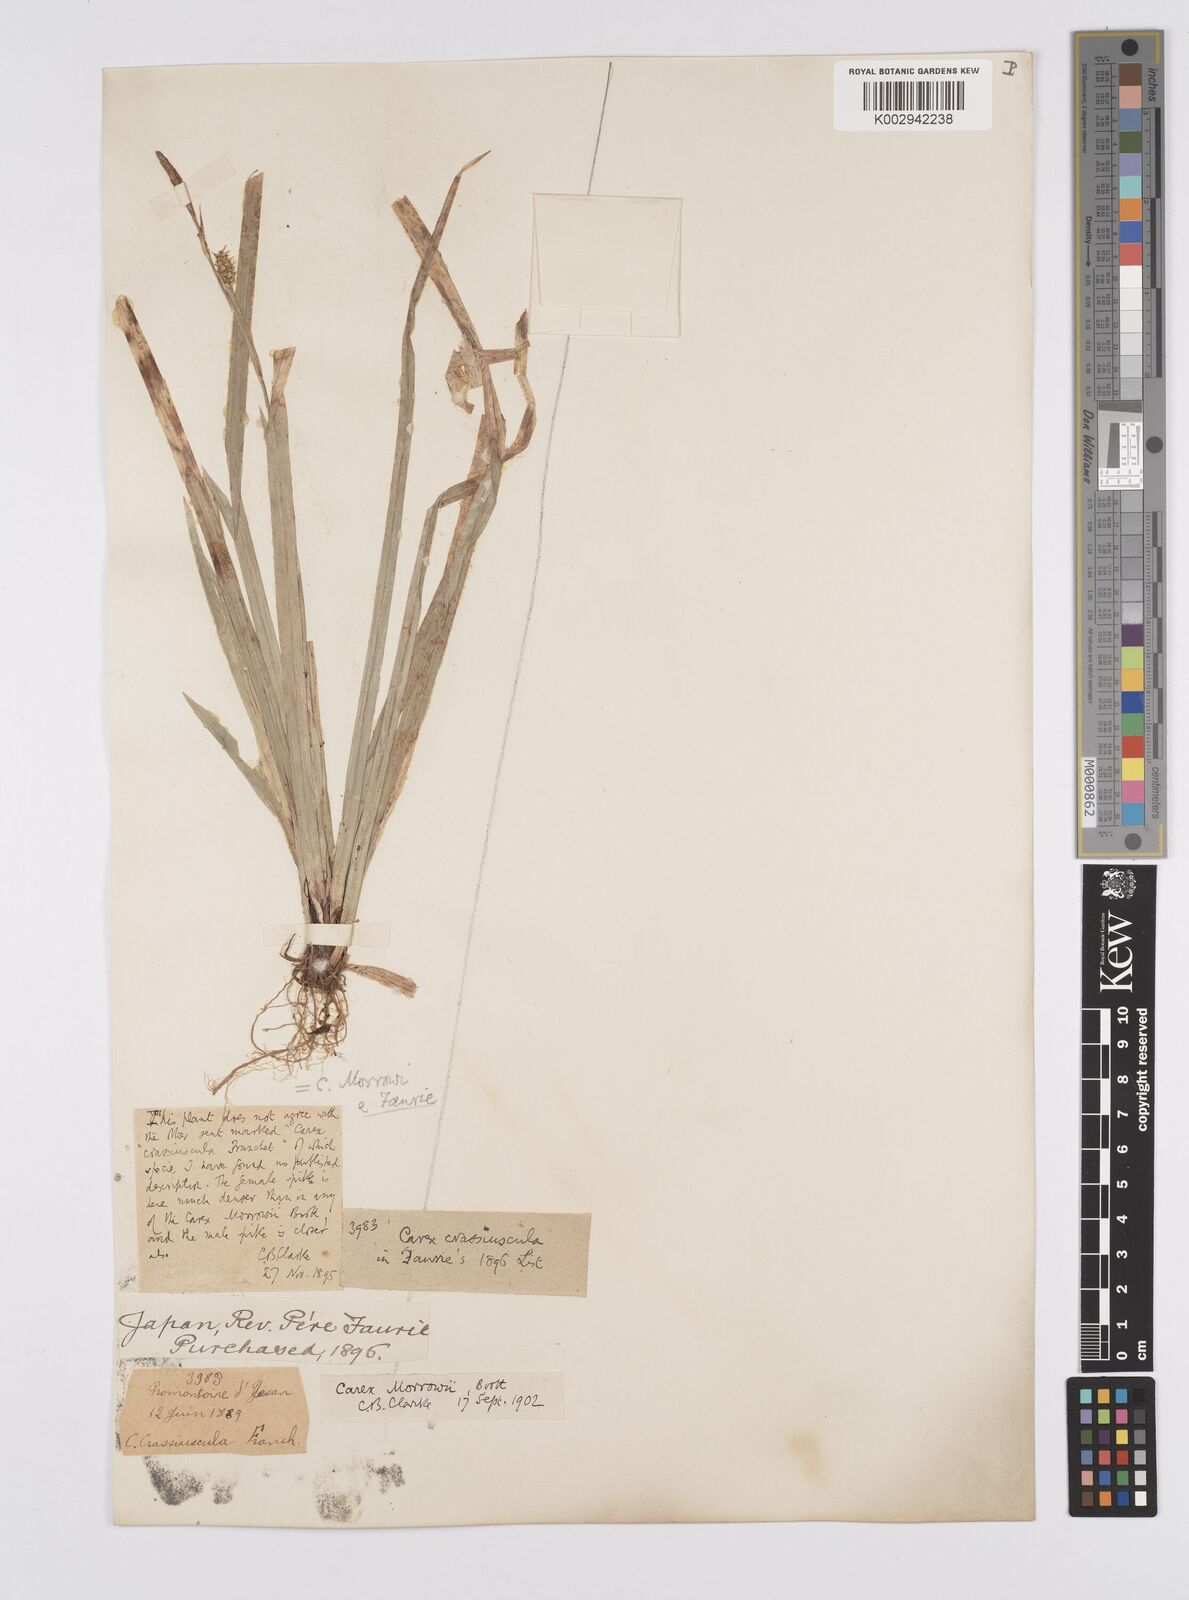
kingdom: Plantae
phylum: Tracheophyta
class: Liliopsida
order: Poales
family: Cyperaceae
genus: Carex
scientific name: Carex morrowii
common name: Japanese sedge
